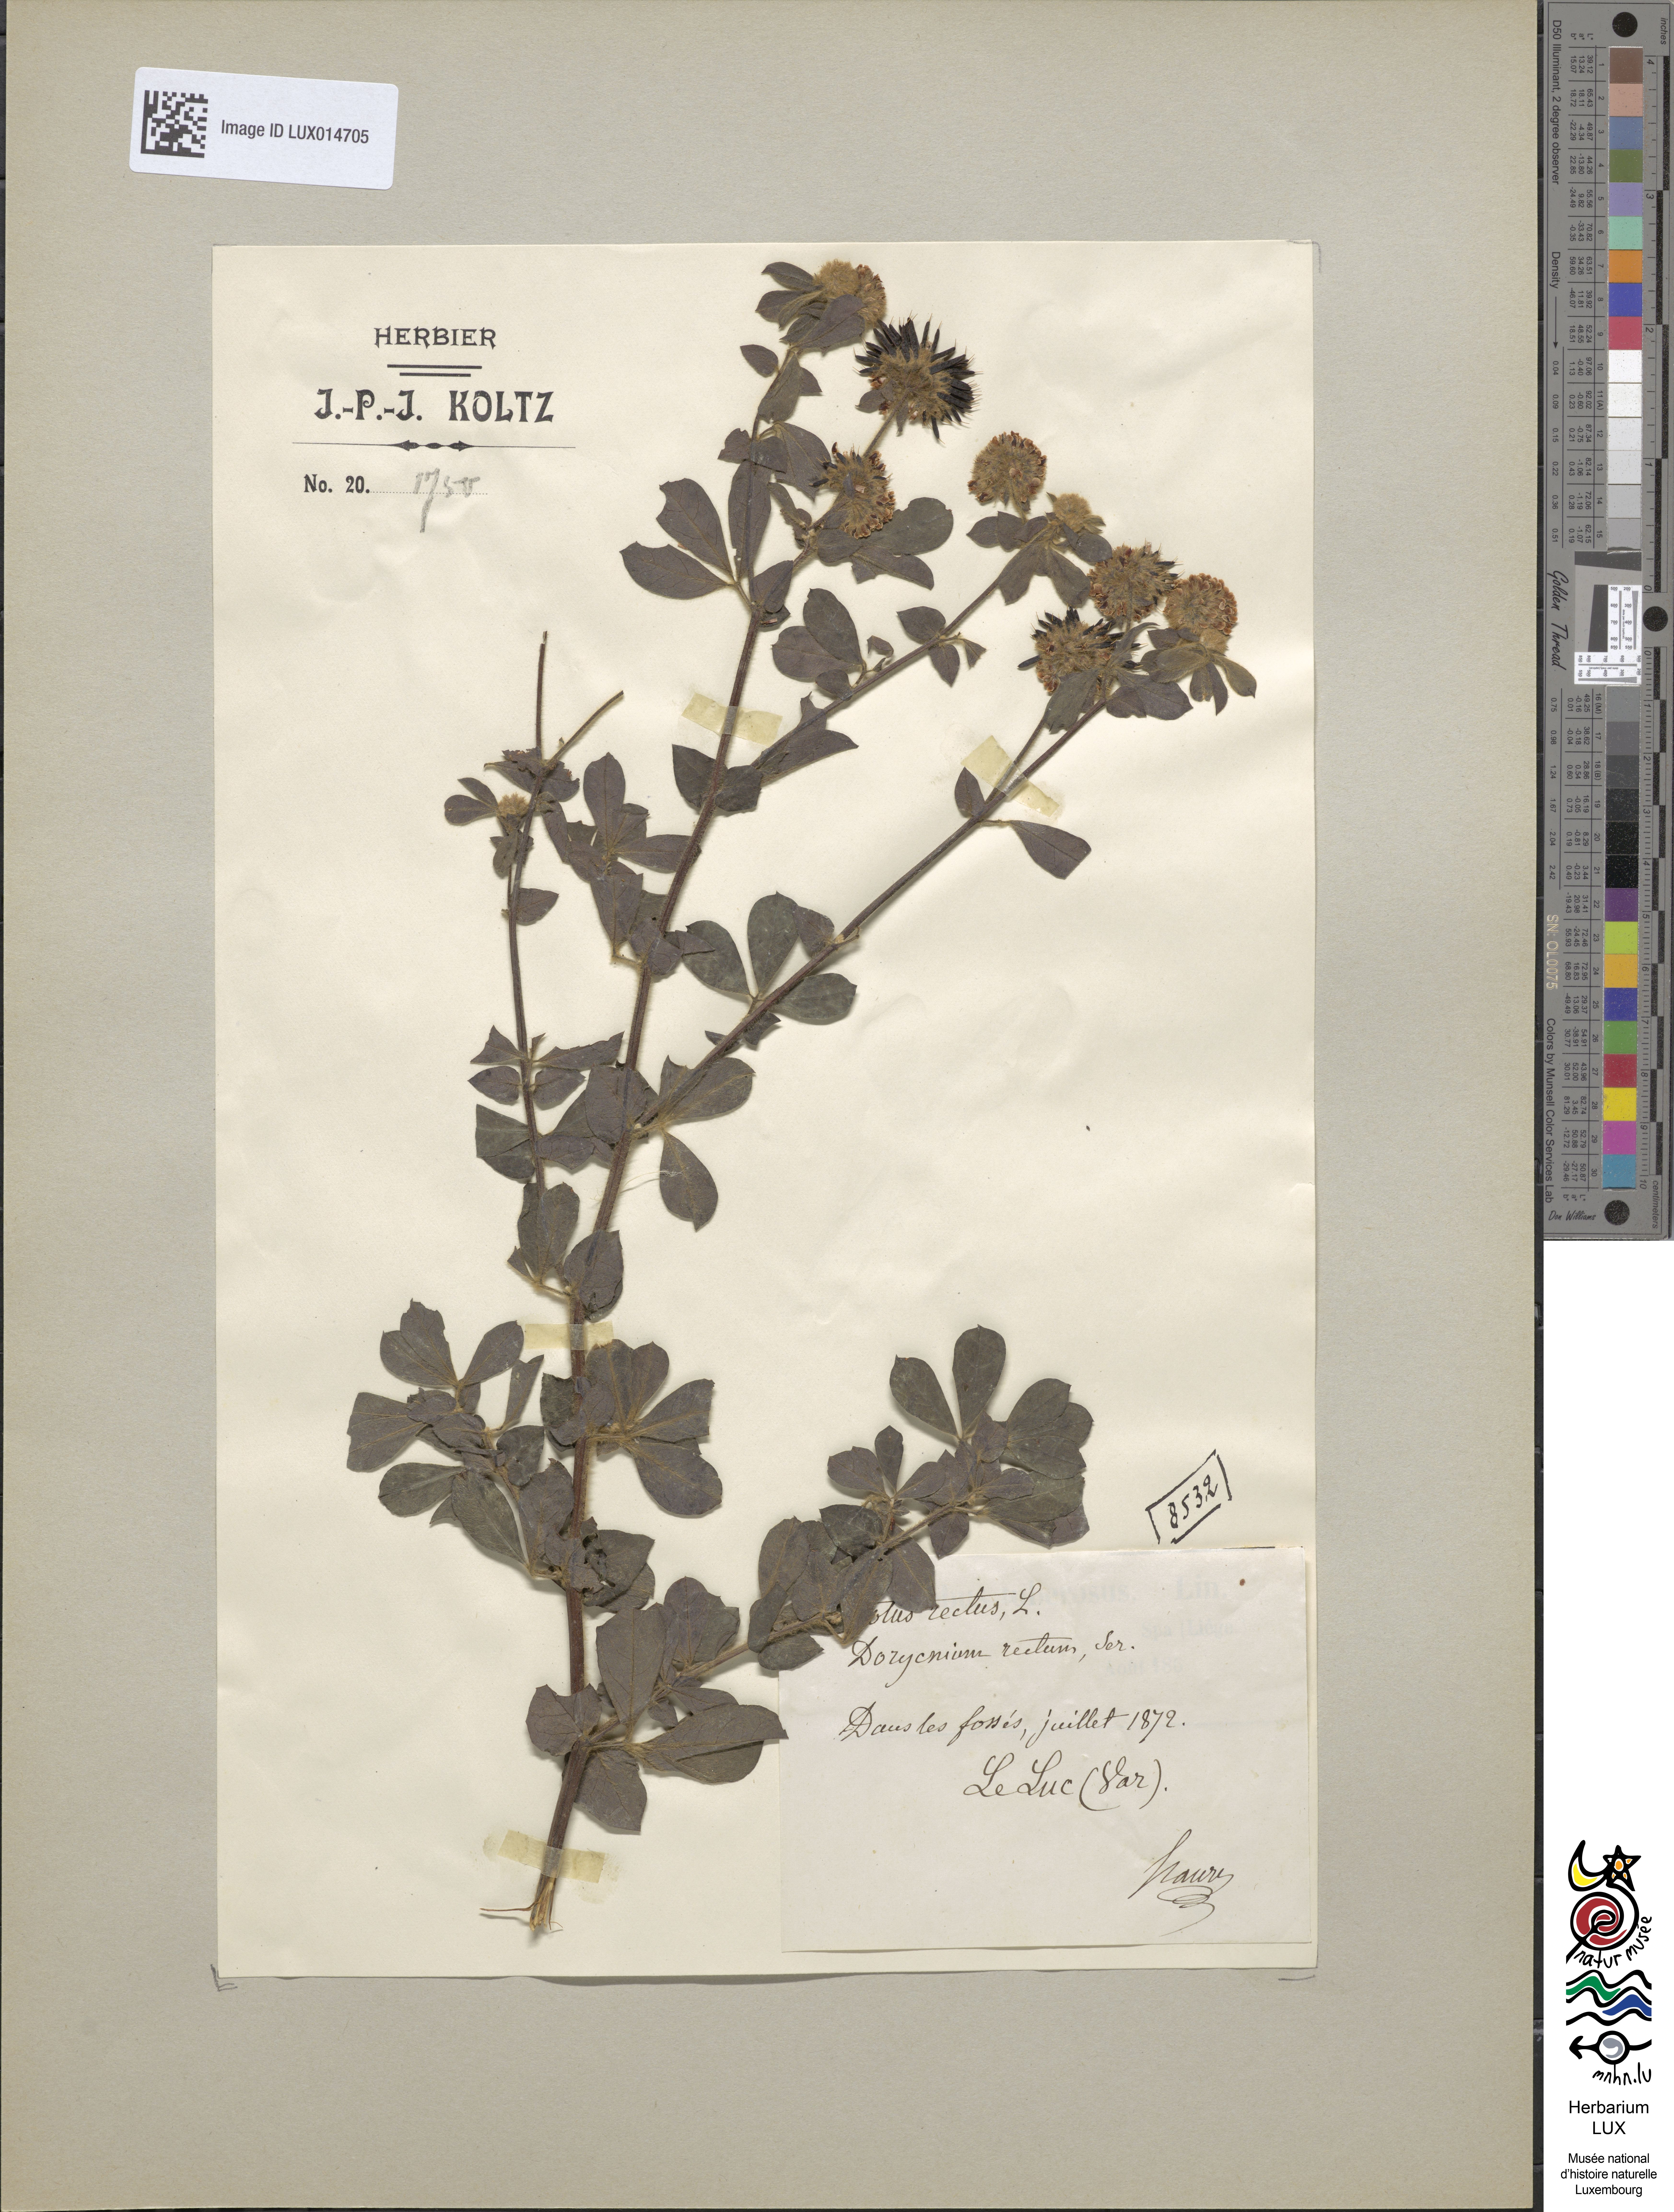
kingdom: Plantae
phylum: Tracheophyta
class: Magnoliopsida
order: Fabales
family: Fabaceae
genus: Lotus
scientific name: Lotus krylovii
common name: Krylov's bird's-foot trefoil
